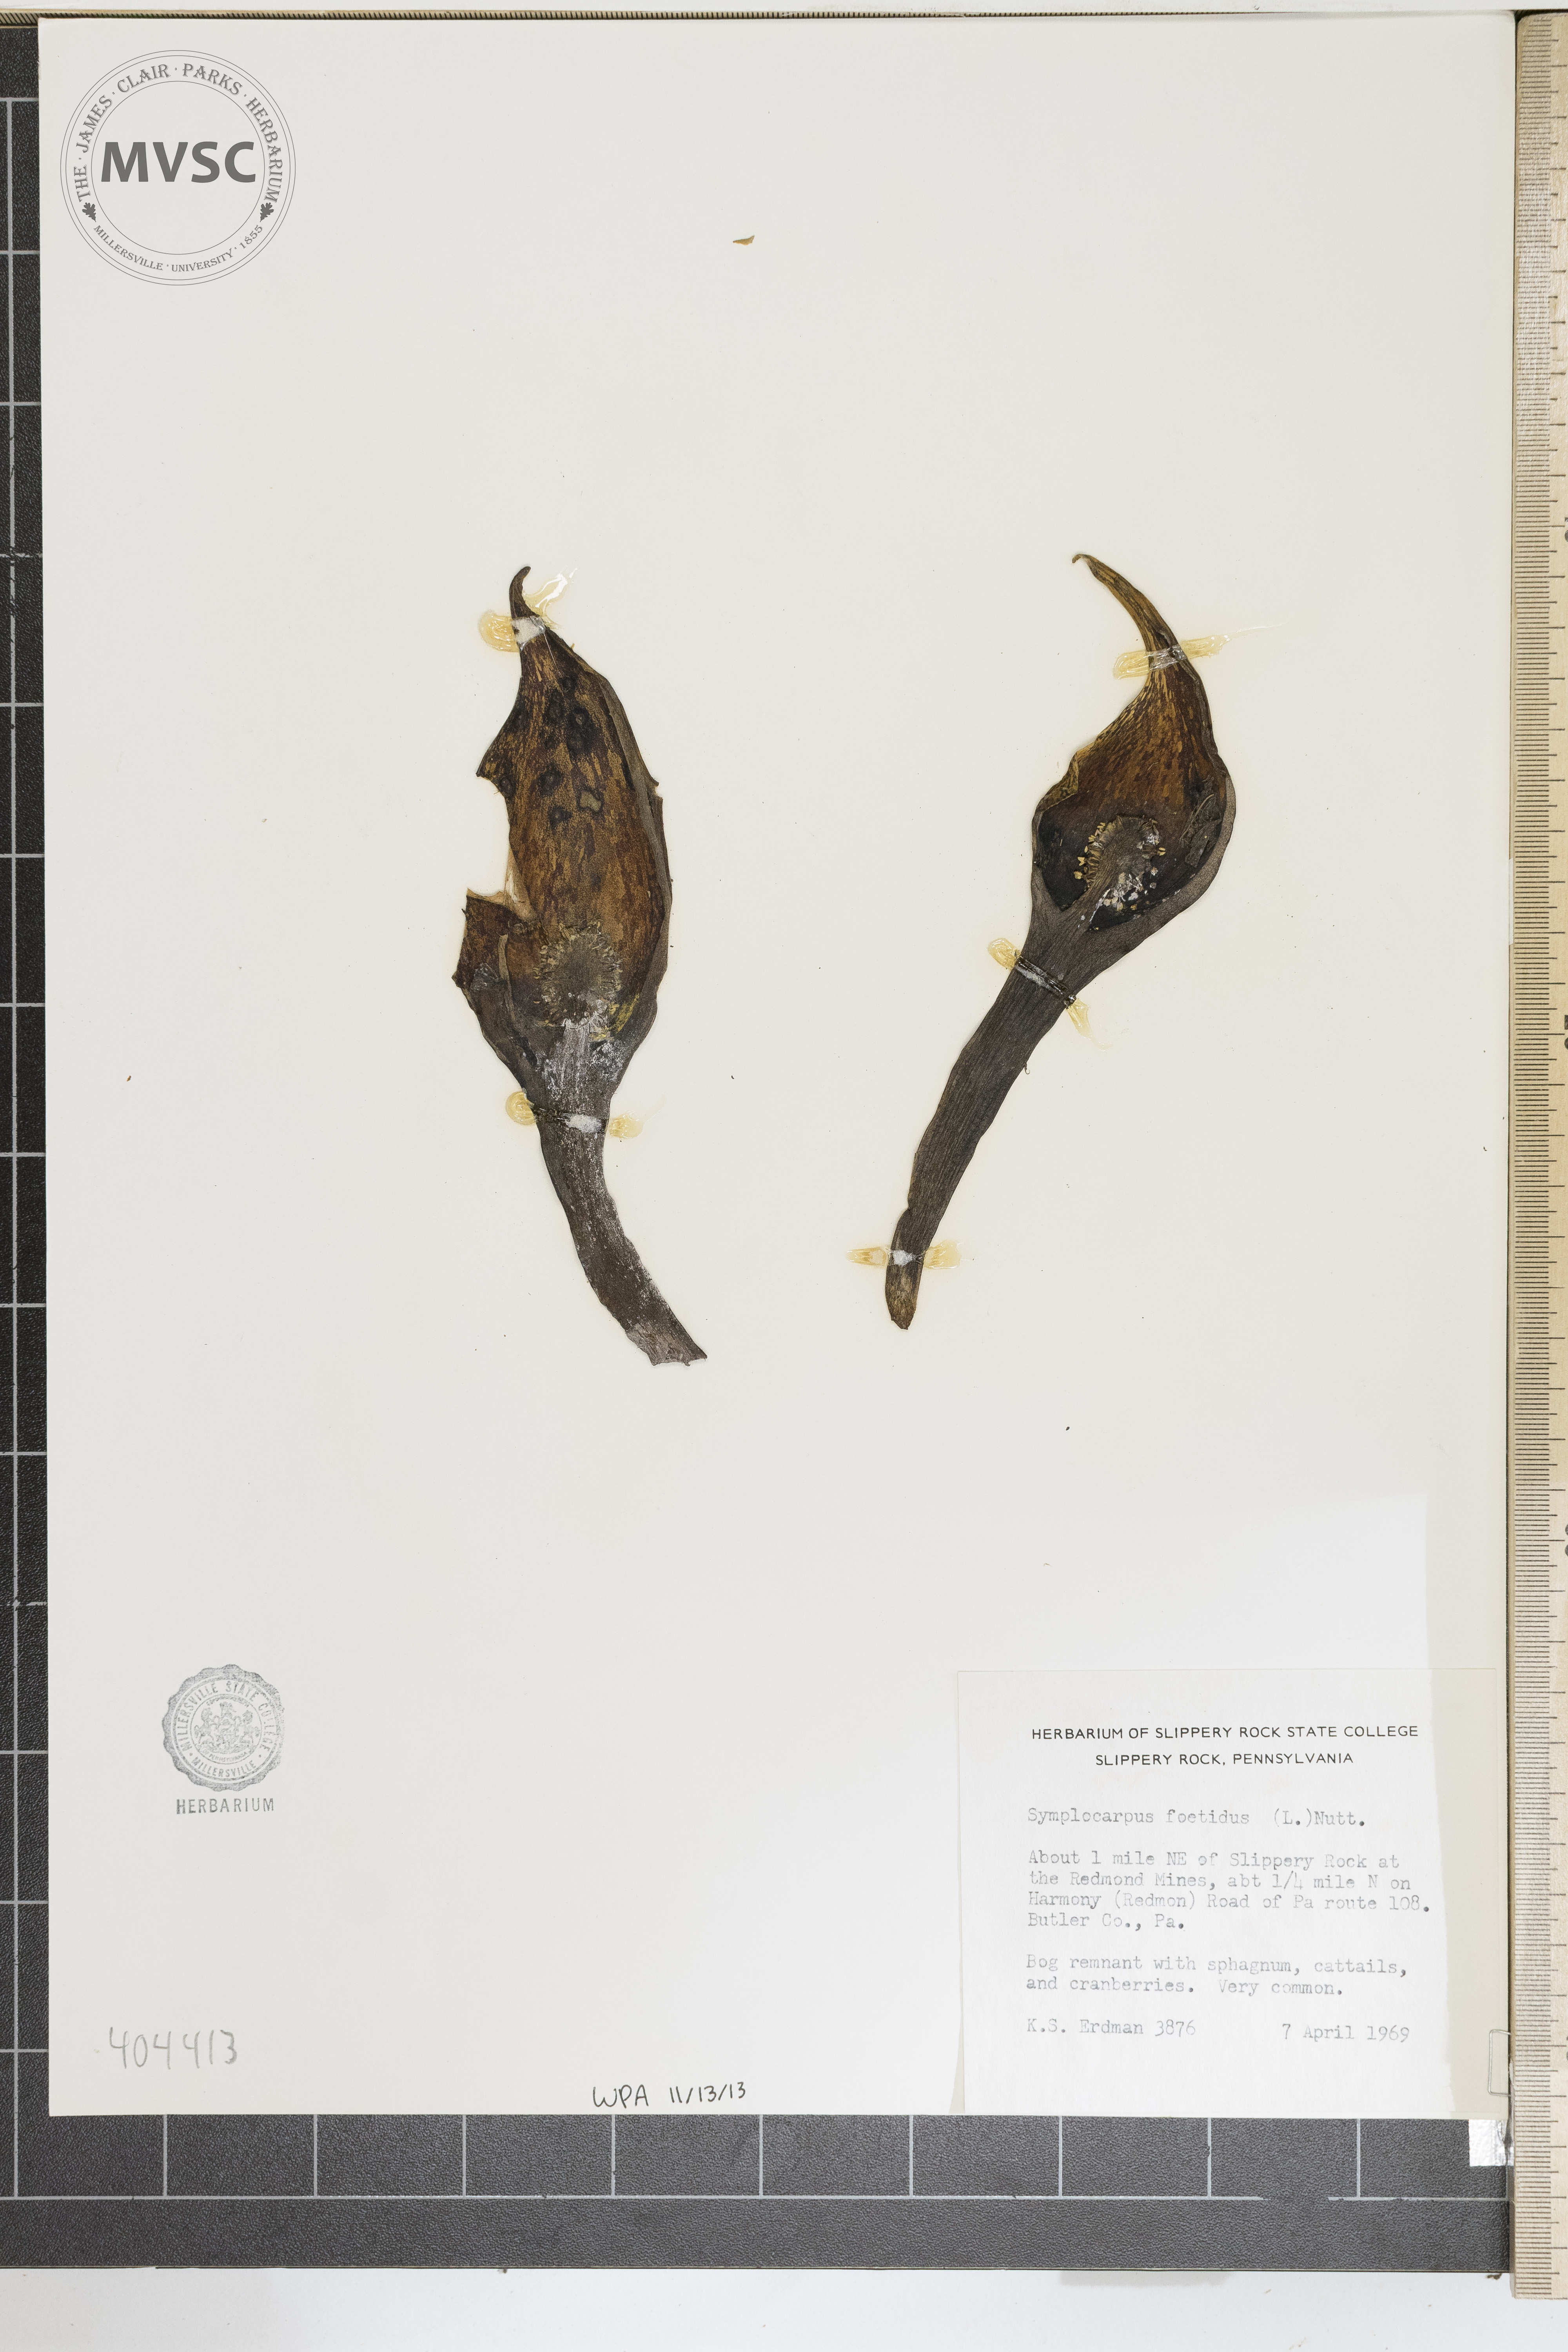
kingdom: Plantae
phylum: Tracheophyta
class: Liliopsida
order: Alismatales
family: Araceae
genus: Symplocarpus
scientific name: Symplocarpus foetidus
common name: Eastern skunk cabbage
